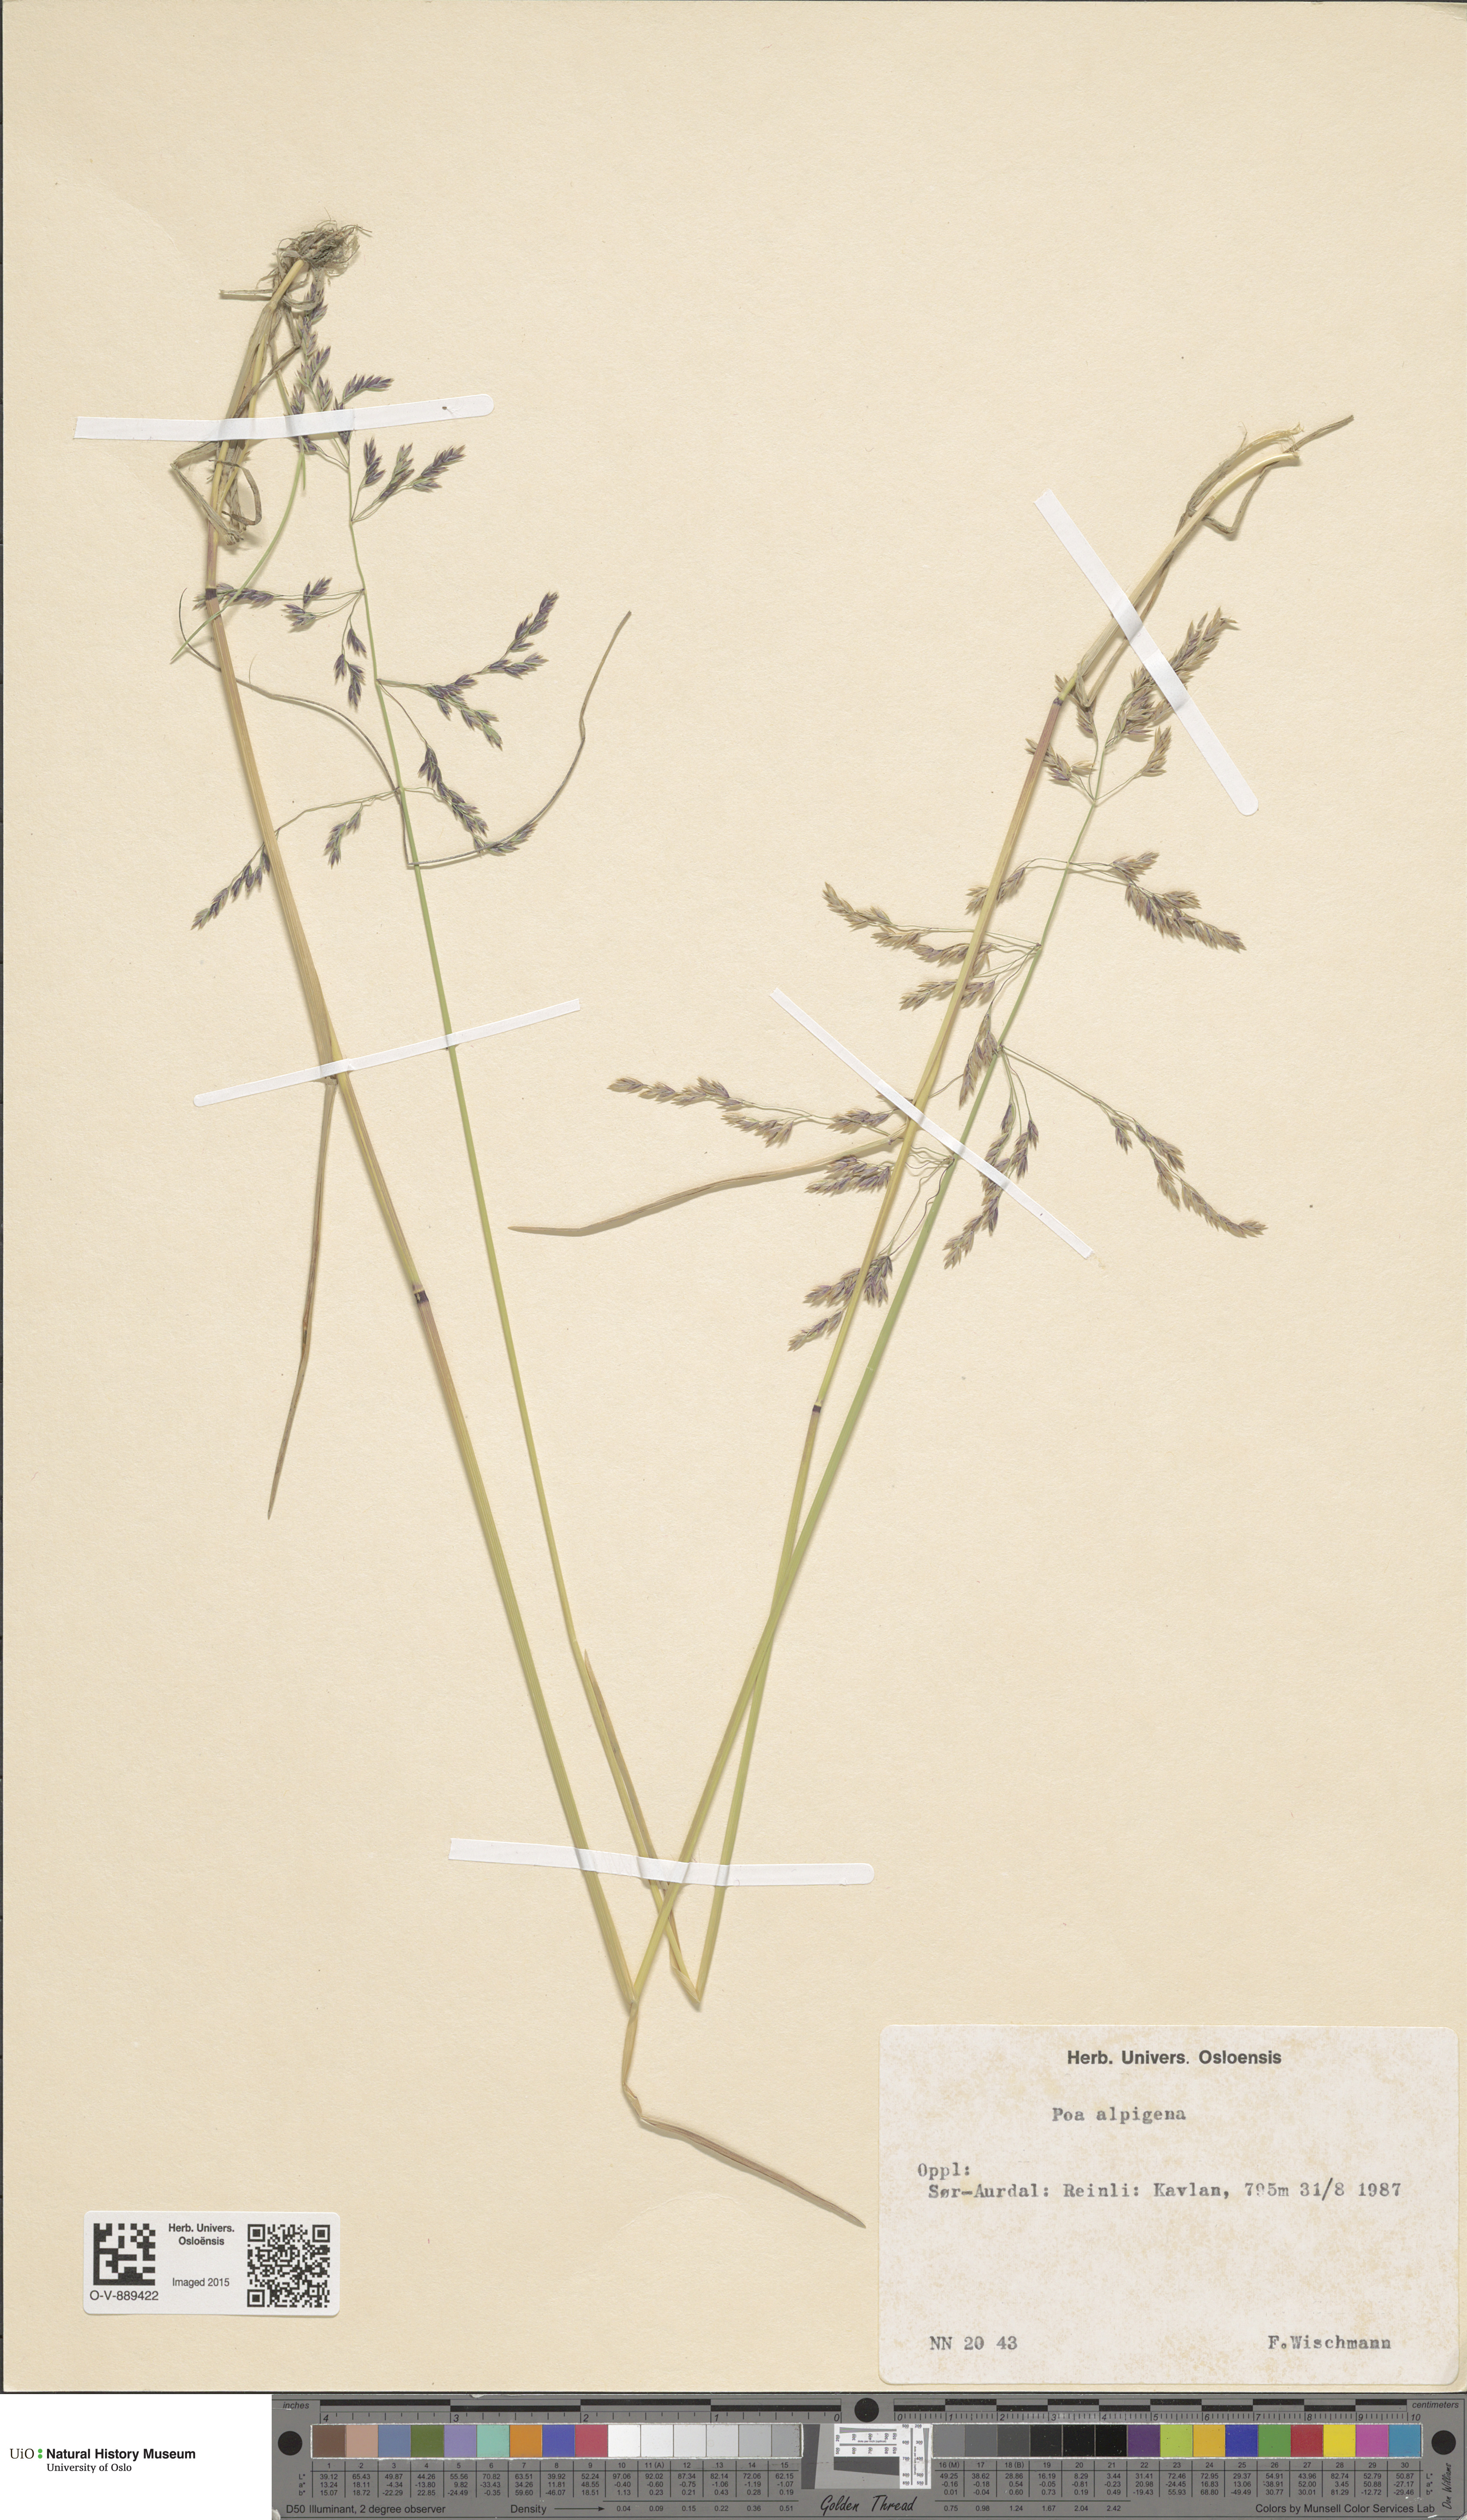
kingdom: Plantae
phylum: Tracheophyta
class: Liliopsida
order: Poales
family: Poaceae
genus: Poa
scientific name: Poa alpigena
